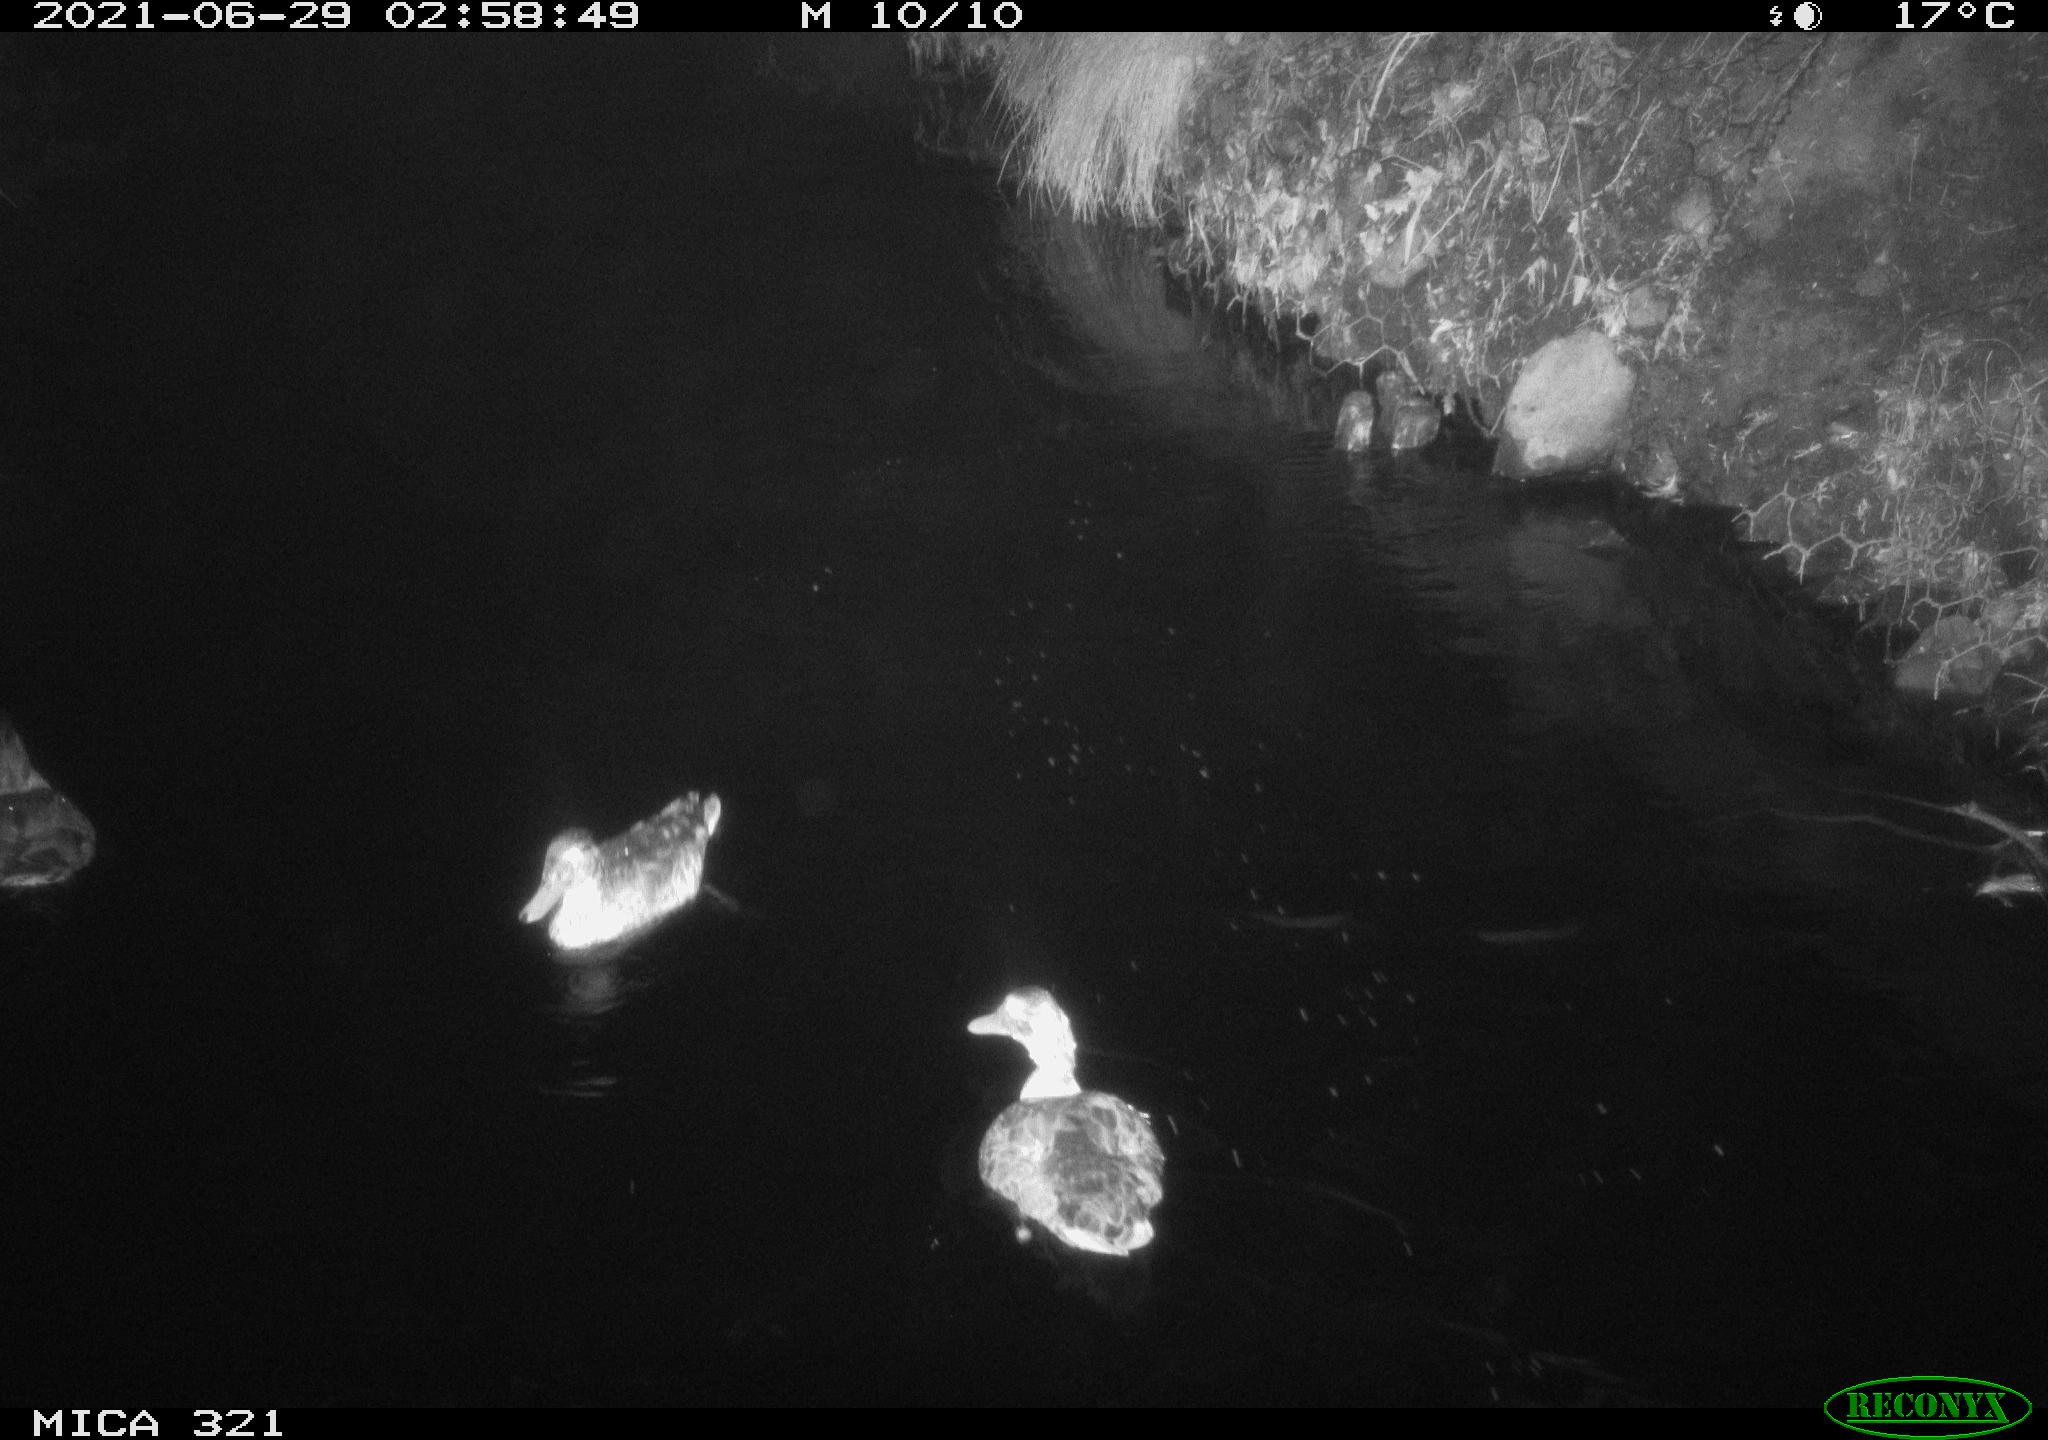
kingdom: Animalia
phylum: Chordata
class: Aves
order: Anseriformes
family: Anatidae
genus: Anas
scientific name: Anas platyrhynchos
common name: Mallard
